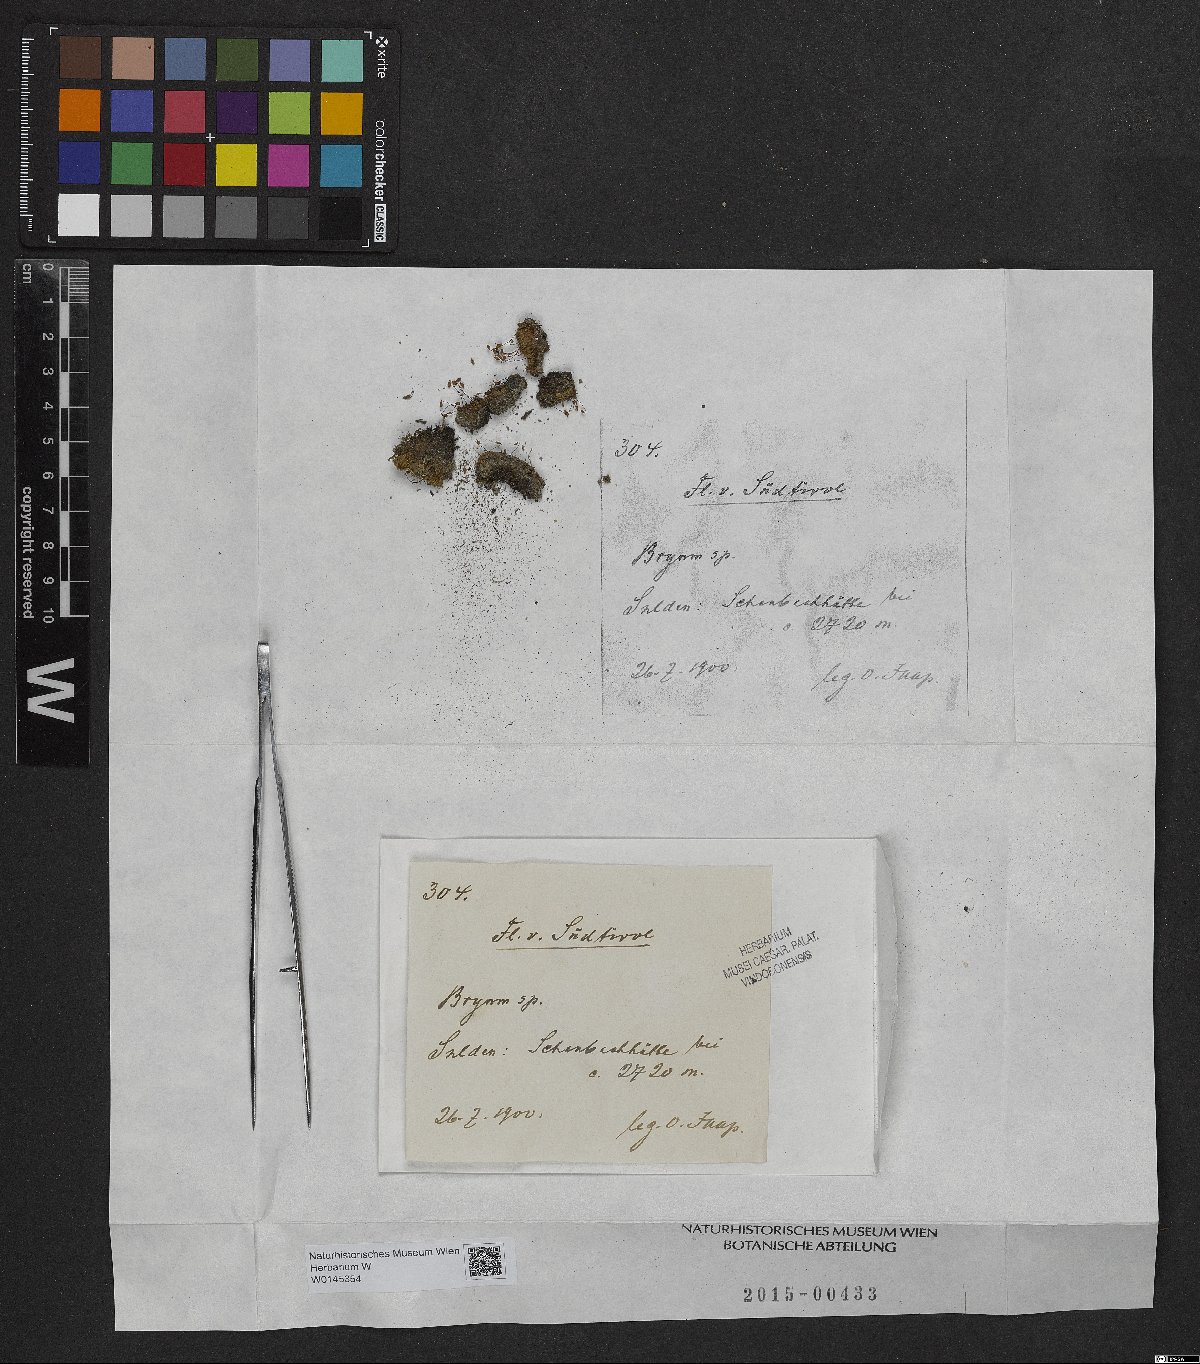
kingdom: Plantae
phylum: Bryophyta
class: Bryopsida
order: Bryales
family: Bryaceae
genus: Bryum
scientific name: Bryum
